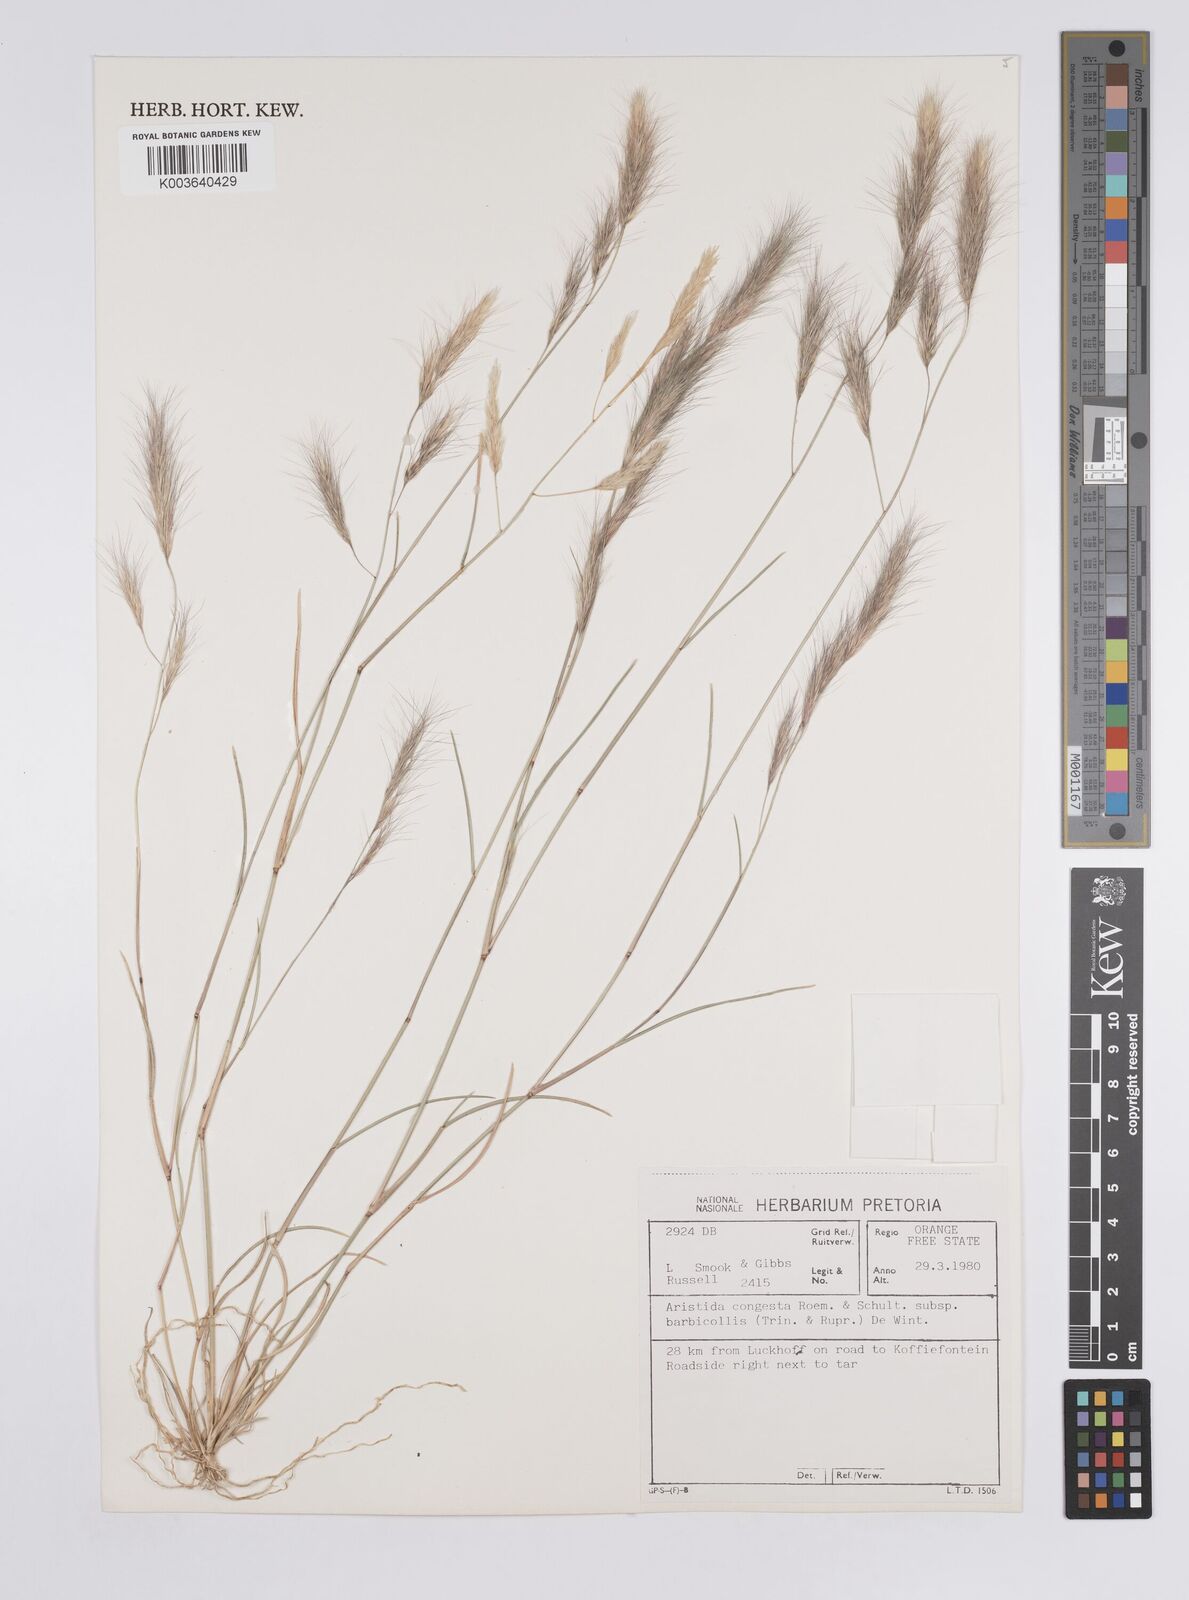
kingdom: Plantae
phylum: Tracheophyta
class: Liliopsida
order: Poales
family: Poaceae
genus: Aristida
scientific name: Aristida barbicollis
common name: Spreading prickle grass
